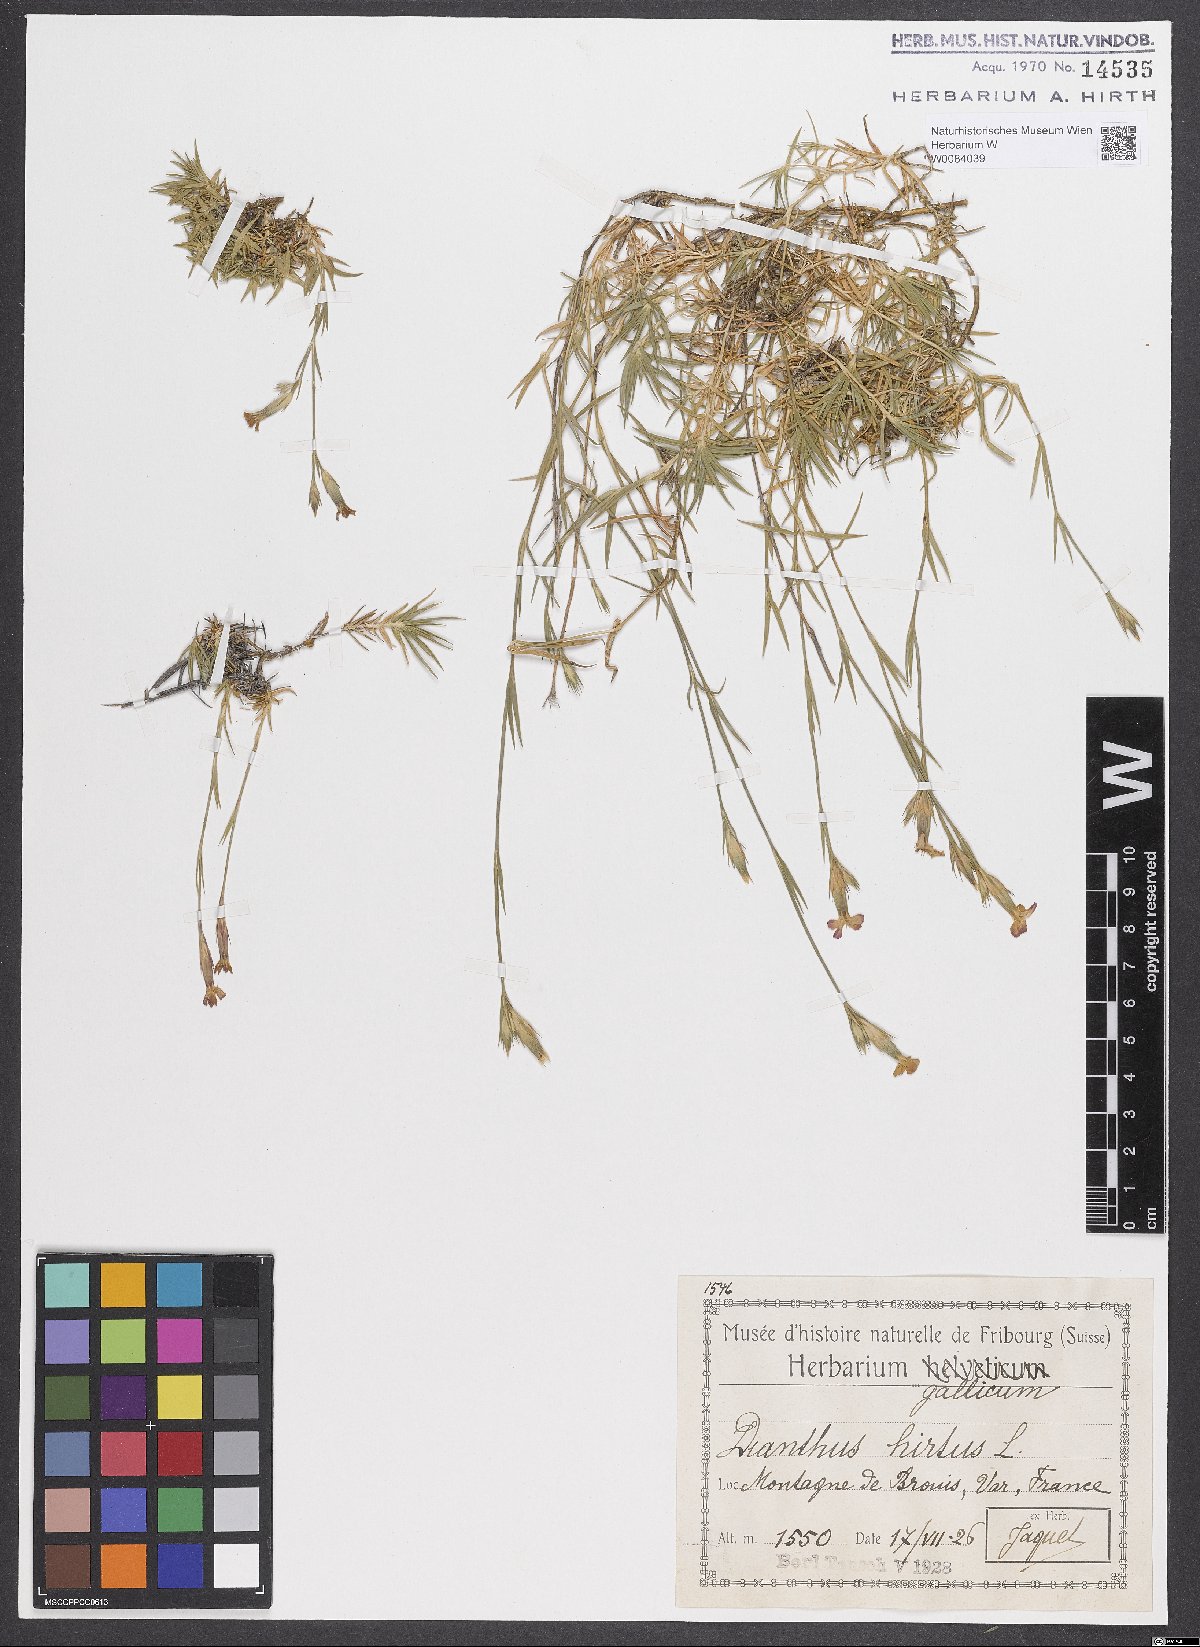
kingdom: Plantae
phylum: Tracheophyta
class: Magnoliopsida
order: Caryophyllales
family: Caryophyllaceae
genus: Dianthus
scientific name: Dianthus scaber
